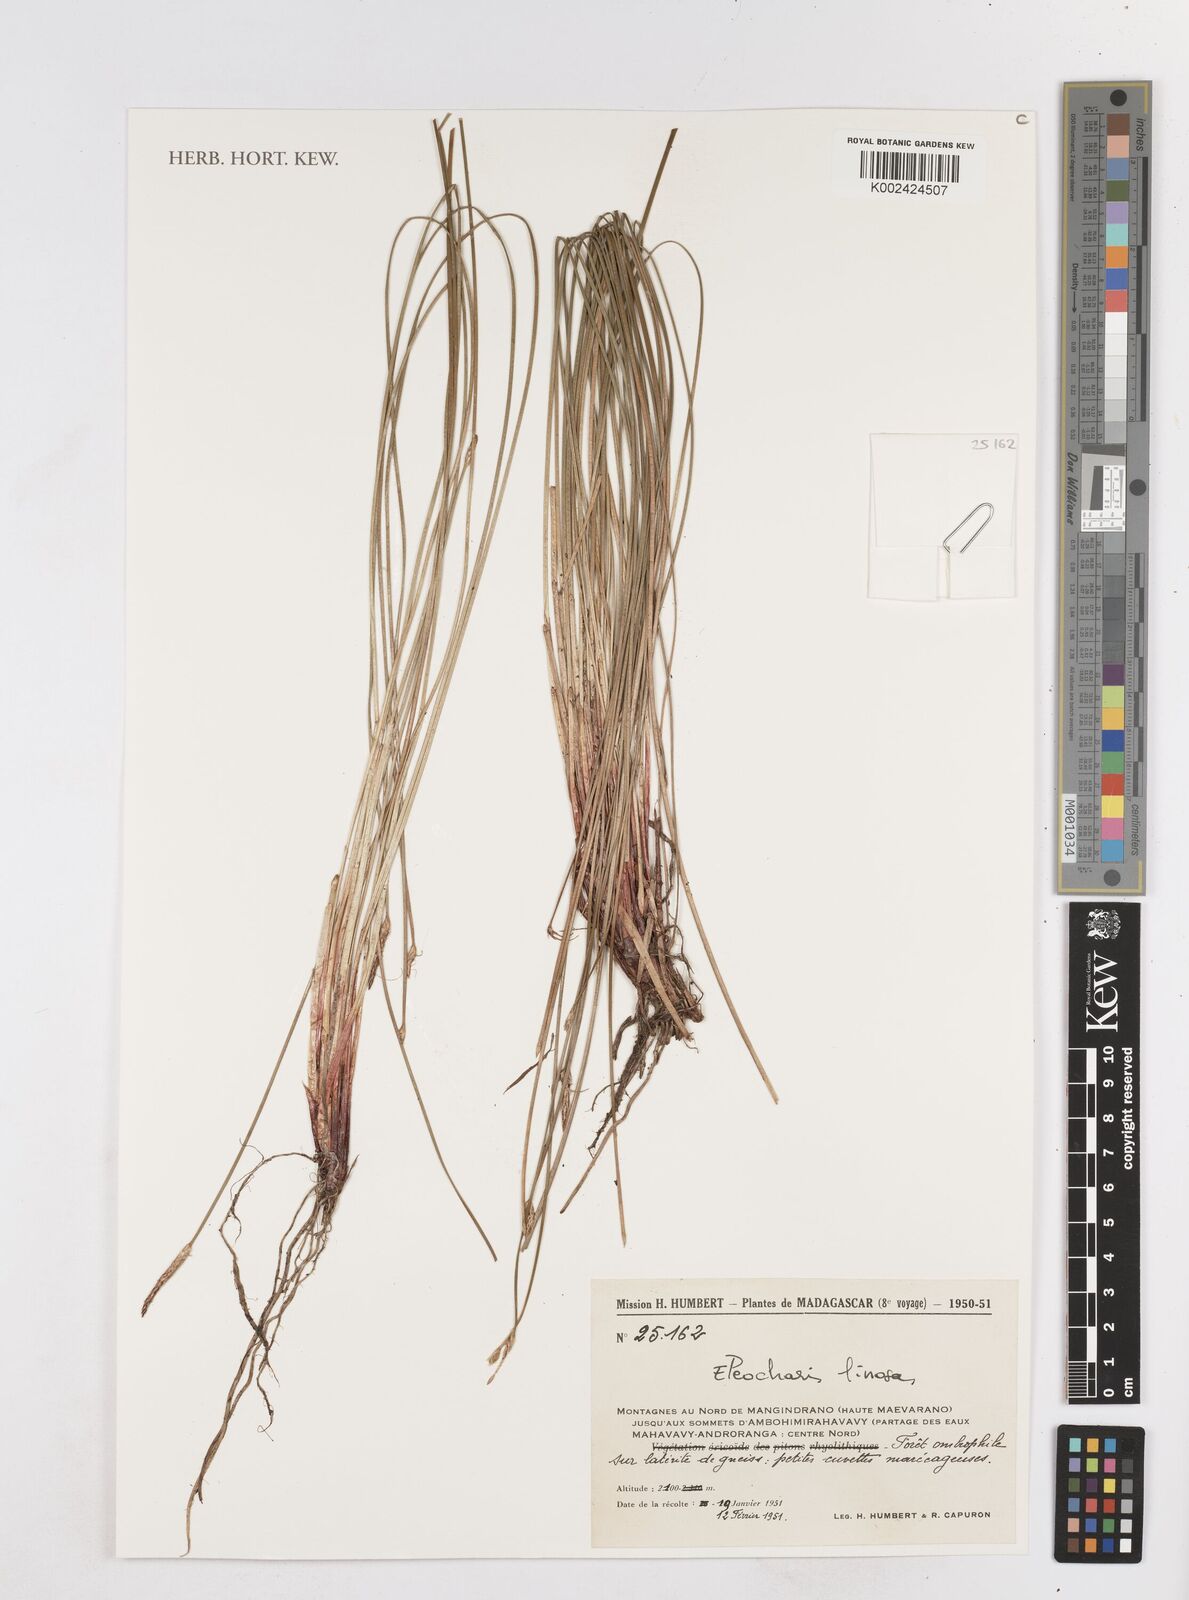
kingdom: Plantae
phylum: Tracheophyta
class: Liliopsida
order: Poales
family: Cyperaceae
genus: Eleocharis
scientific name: Eleocharis limosa
